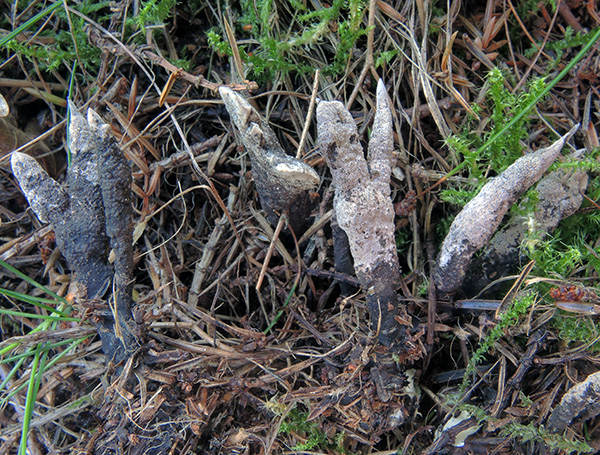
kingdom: Fungi
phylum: Ascomycota
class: Sordariomycetes
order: Xylariales
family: Xylariaceae
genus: Xylaria
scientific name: Xylaria bulbosa
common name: knoldet stødsvamp
